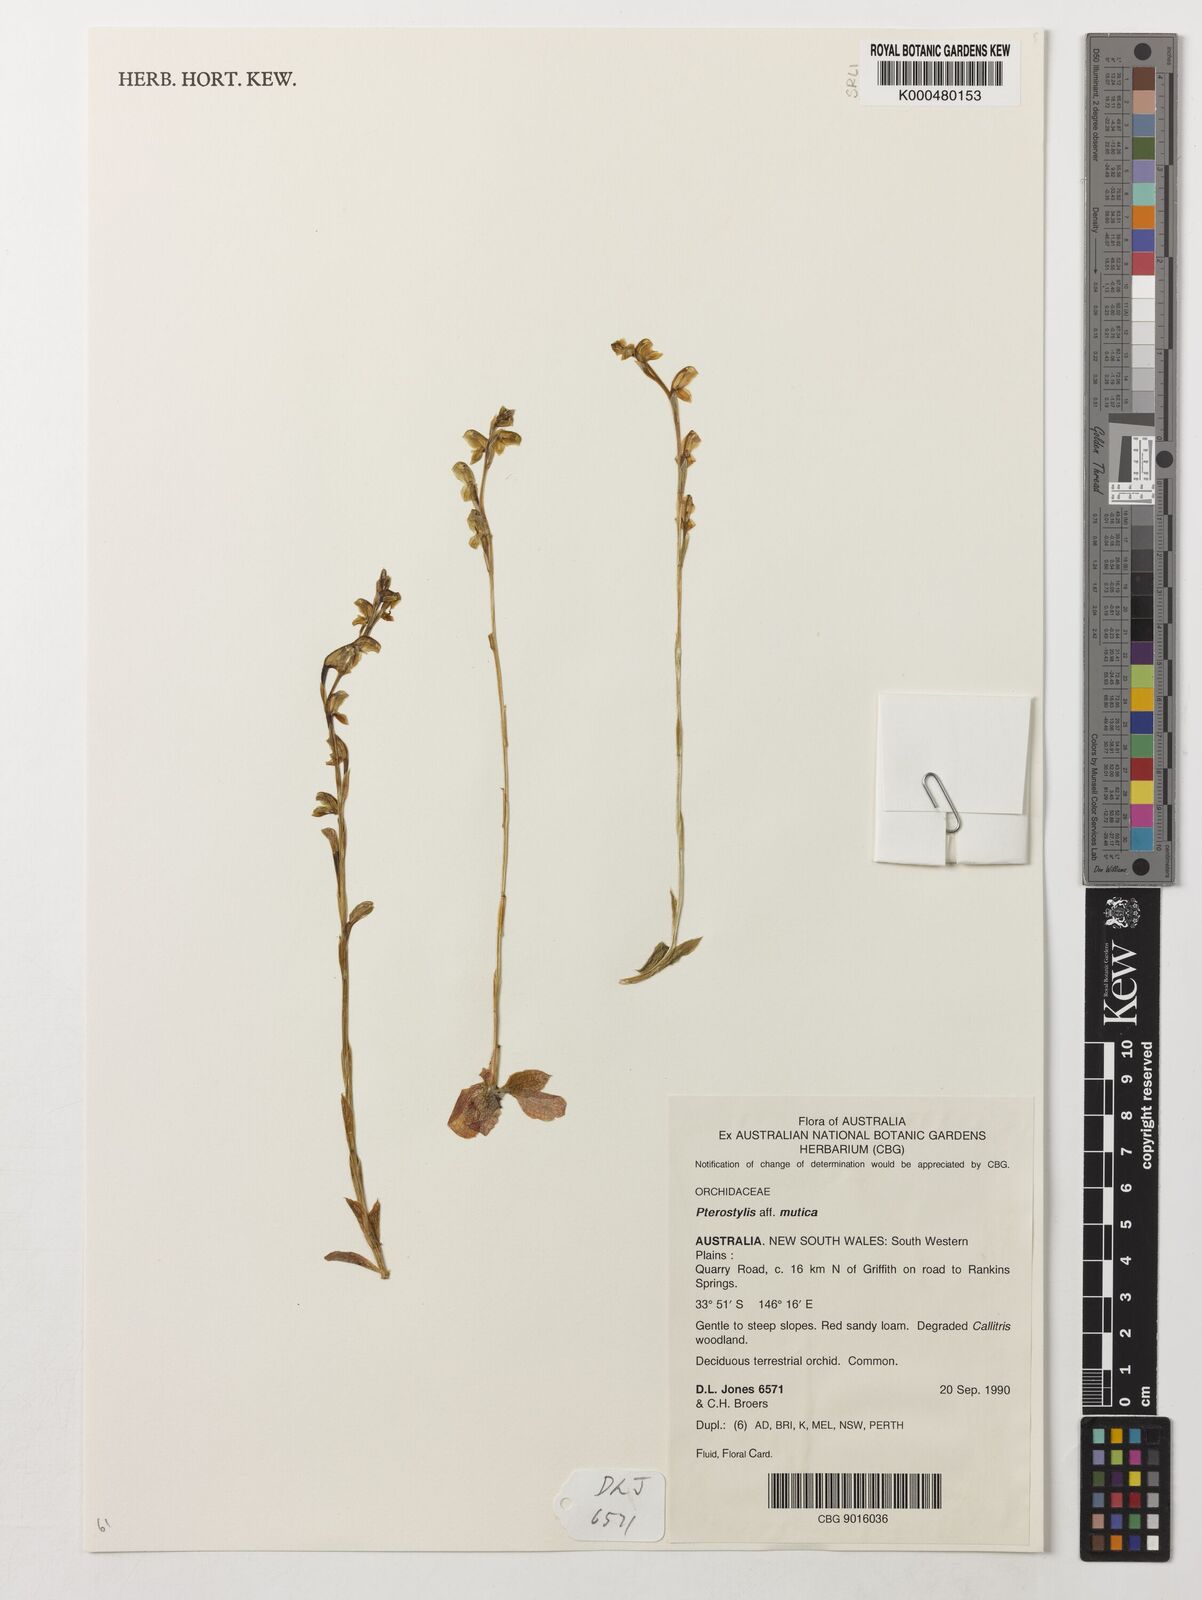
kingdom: Plantae
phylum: Tracheophyta
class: Liliopsida
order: Asparagales
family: Orchidaceae
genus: Pterostylis
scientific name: Pterostylis mutica
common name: Midget greenhood
